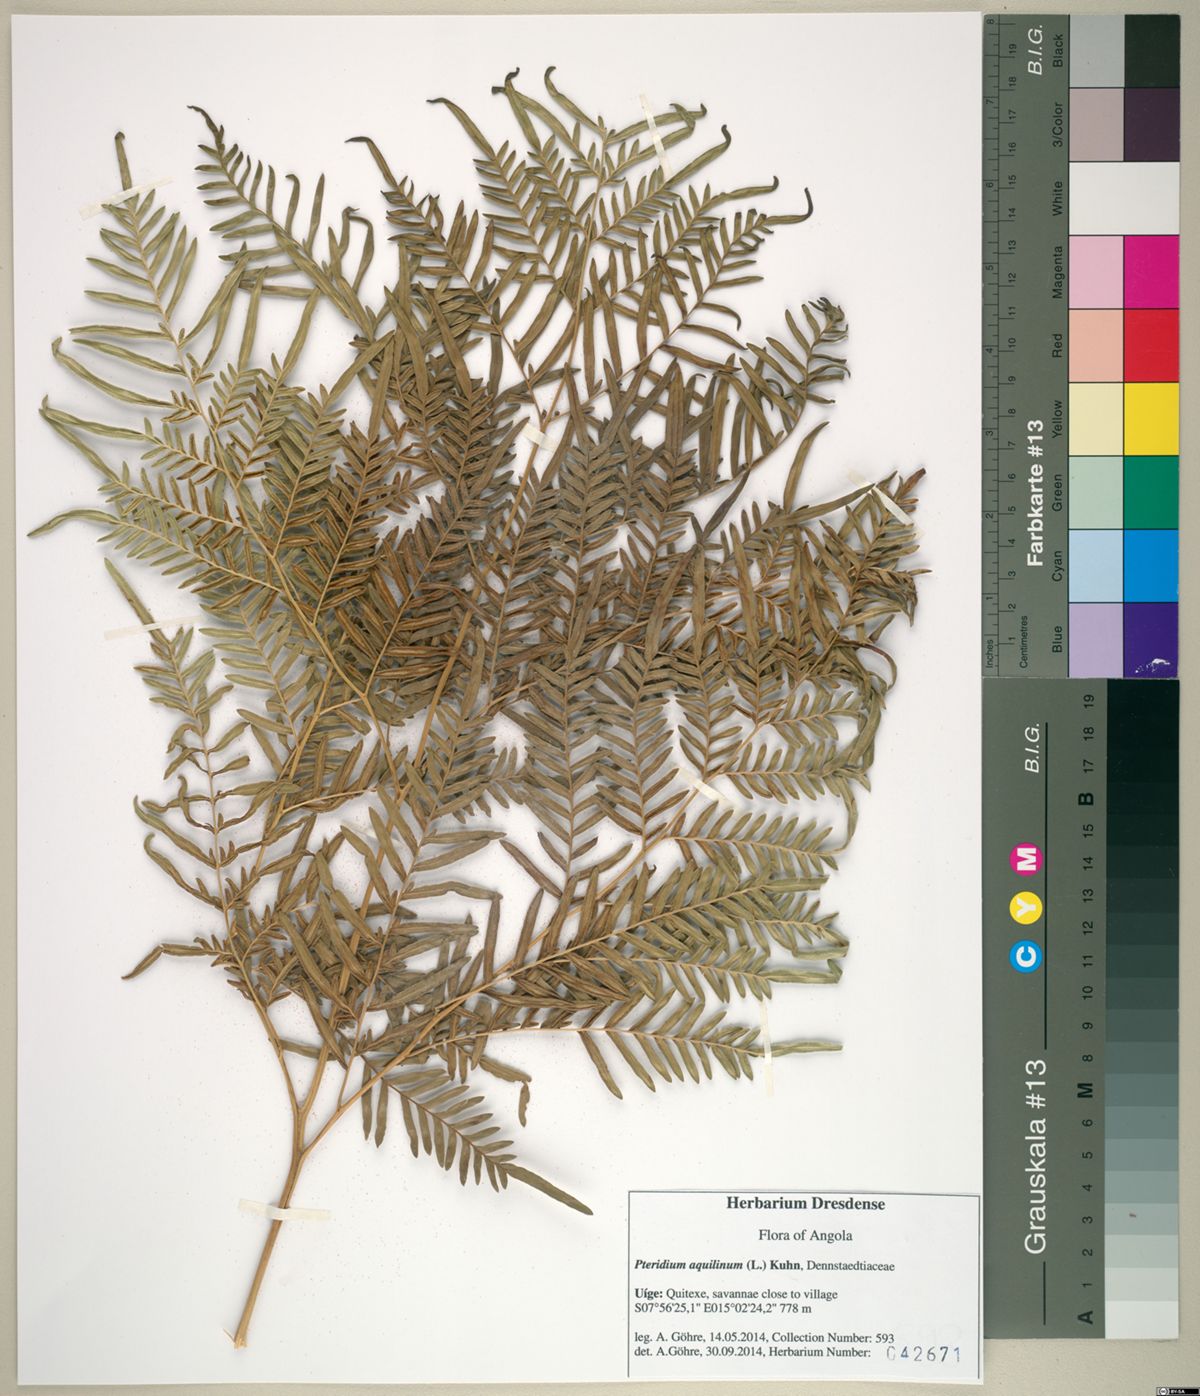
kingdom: Plantae
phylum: Tracheophyta
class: Polypodiopsida
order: Polypodiales
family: Dennstaedtiaceae
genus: Pteridium
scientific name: Pteridium aquilinum
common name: Bracken
